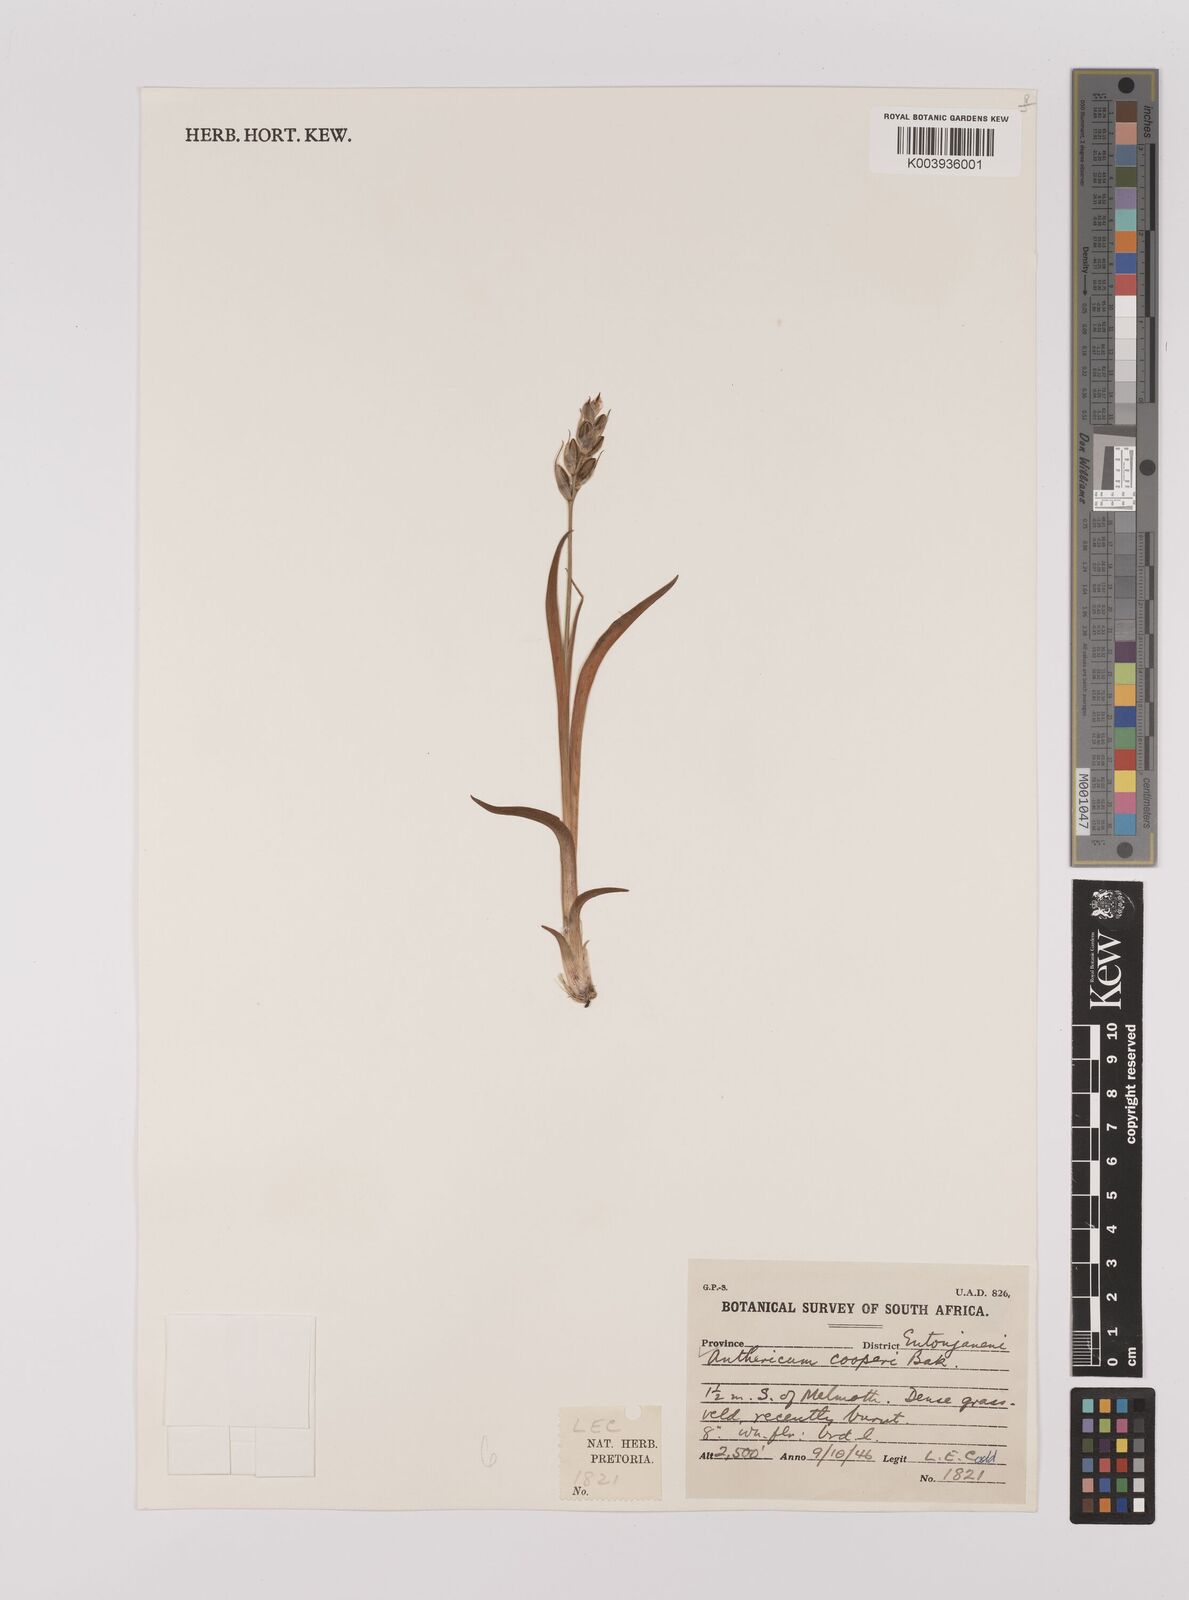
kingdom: Plantae
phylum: Tracheophyta
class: Liliopsida
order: Asparagales
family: Asparagaceae
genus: Chlorophytum
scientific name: Chlorophytum cooperi
